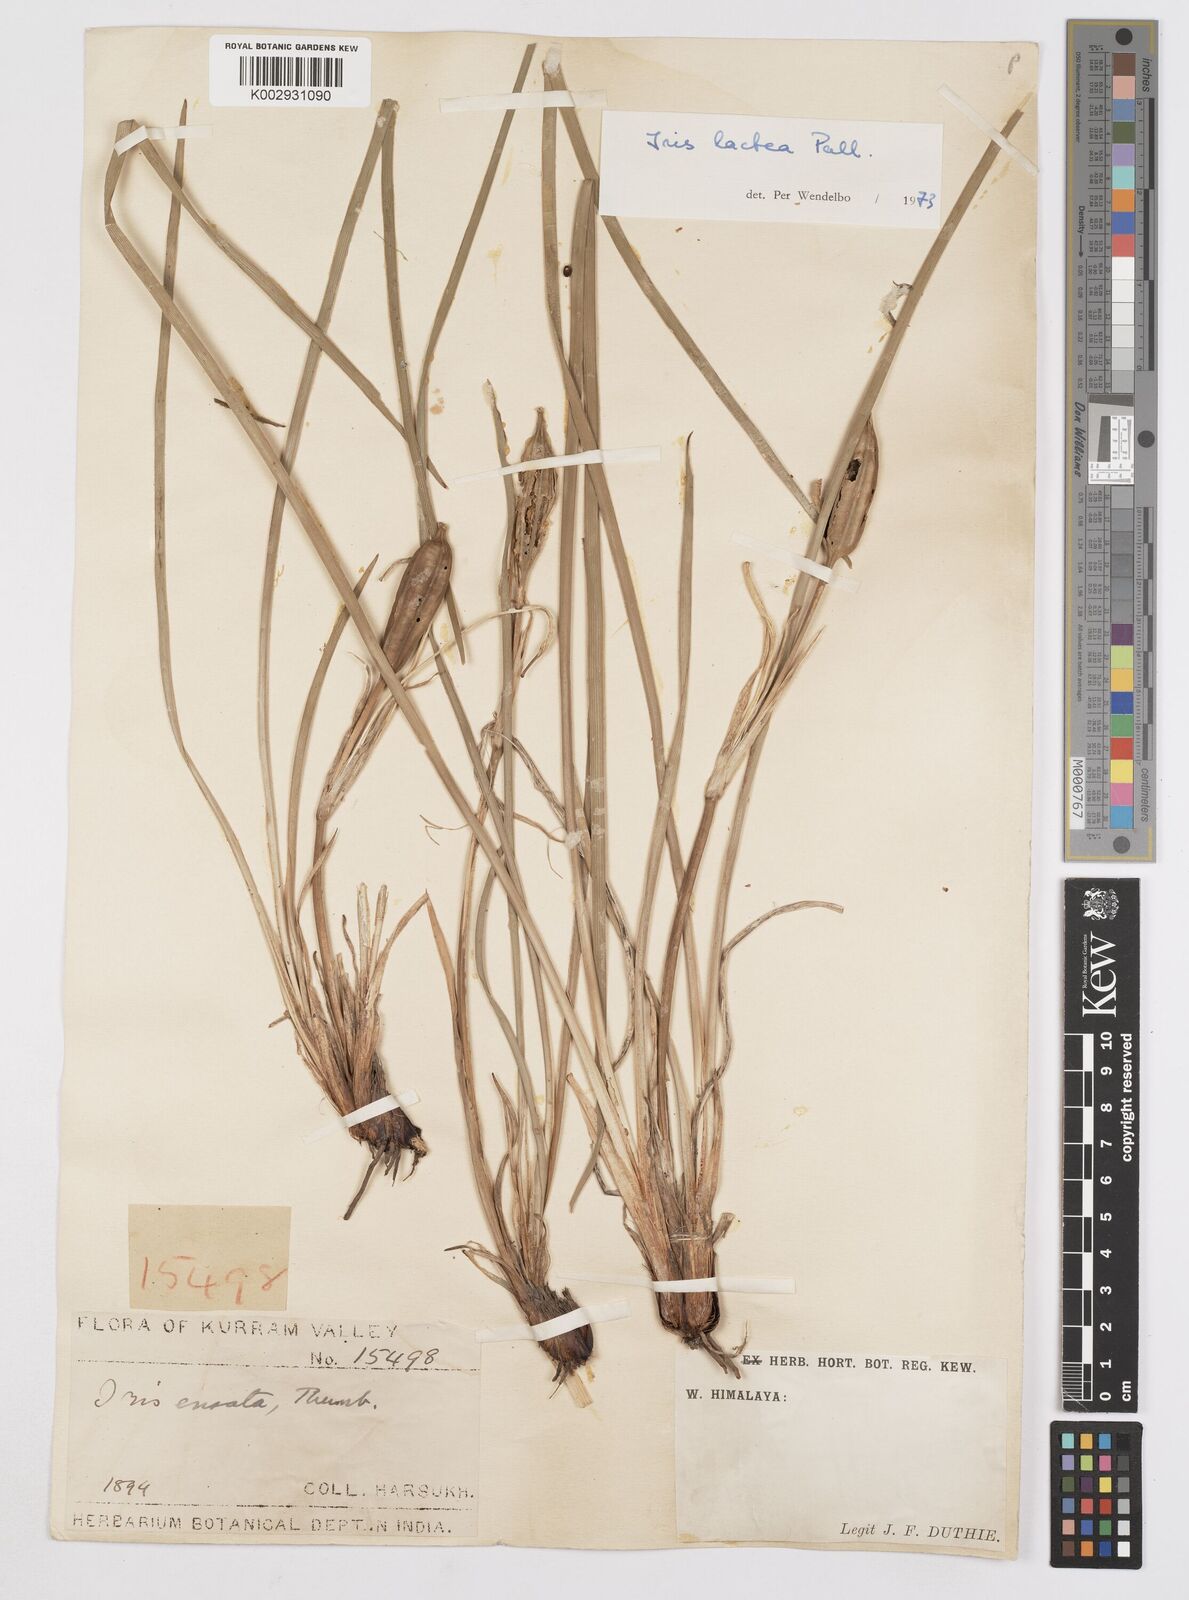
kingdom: Plantae
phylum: Tracheophyta
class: Liliopsida
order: Asparagales
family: Iridaceae
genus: Iris
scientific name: Iris lactea
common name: White-flower chinese iris
